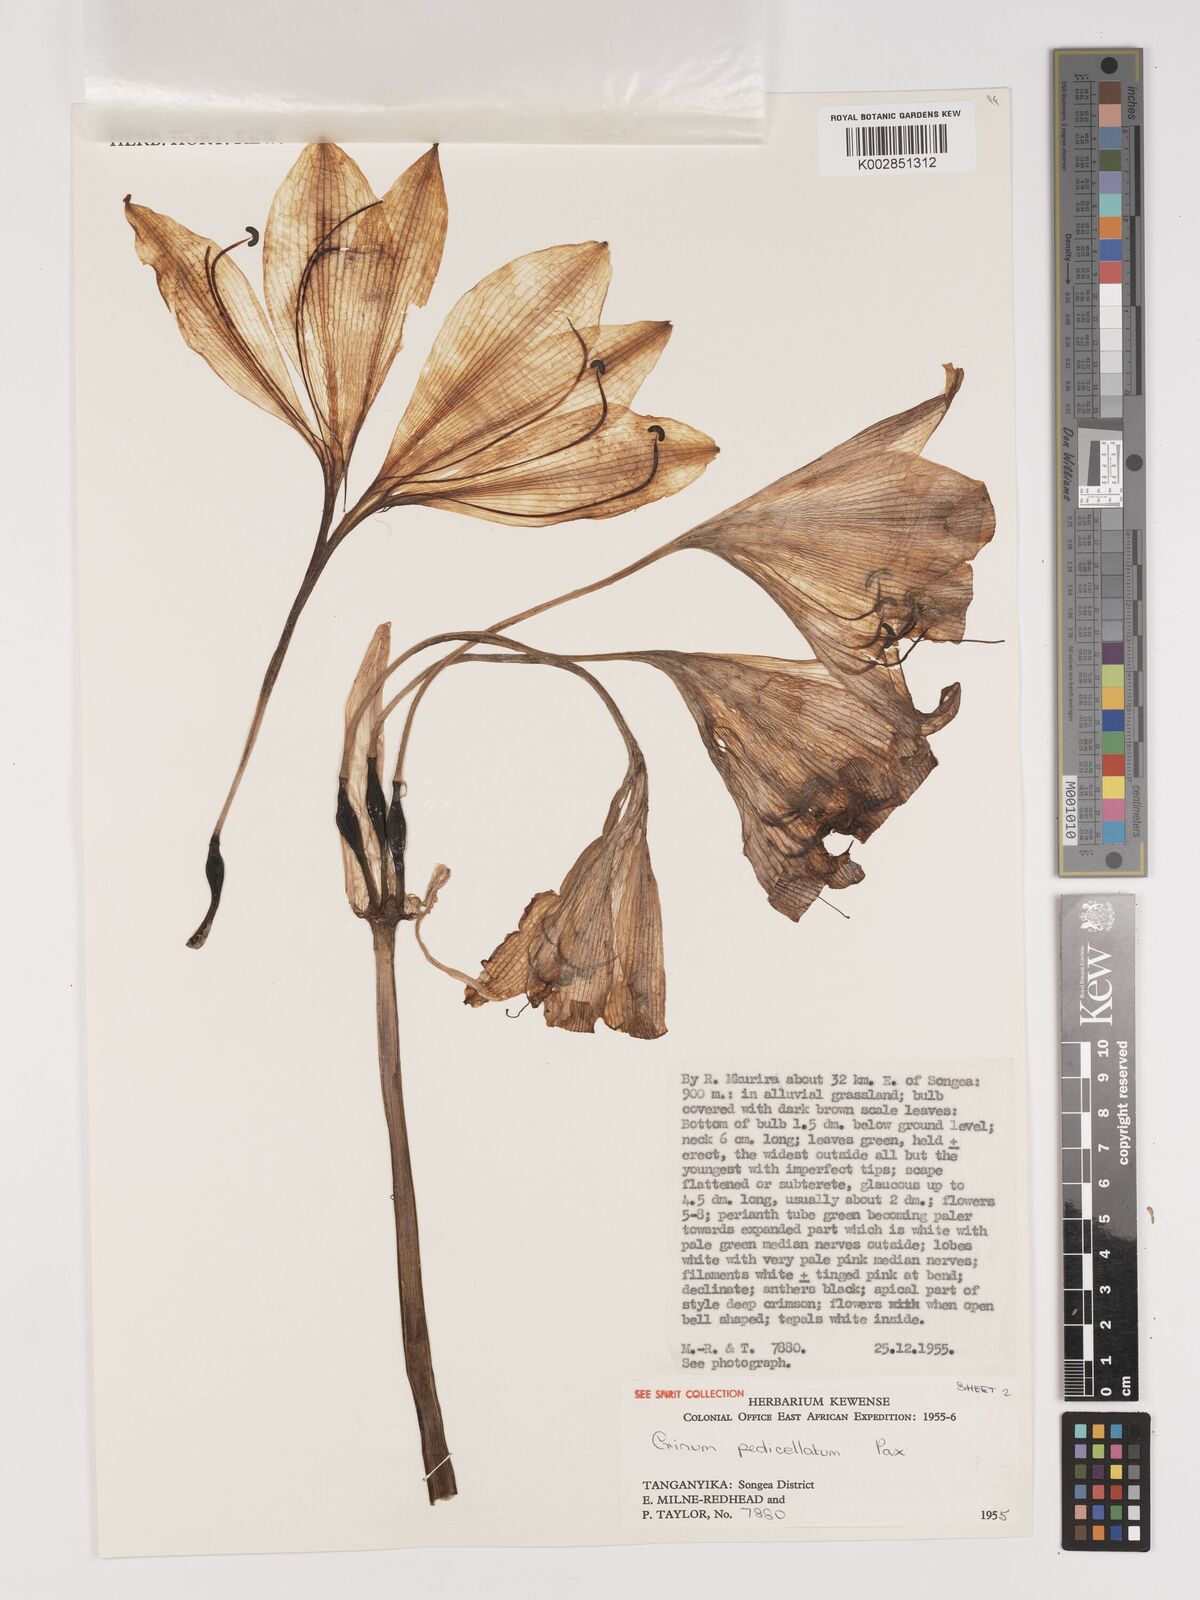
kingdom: Plantae
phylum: Tracheophyta
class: Liliopsida
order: Asparagales
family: Amaryllidaceae
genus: Crinum
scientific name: Crinum macowanii
